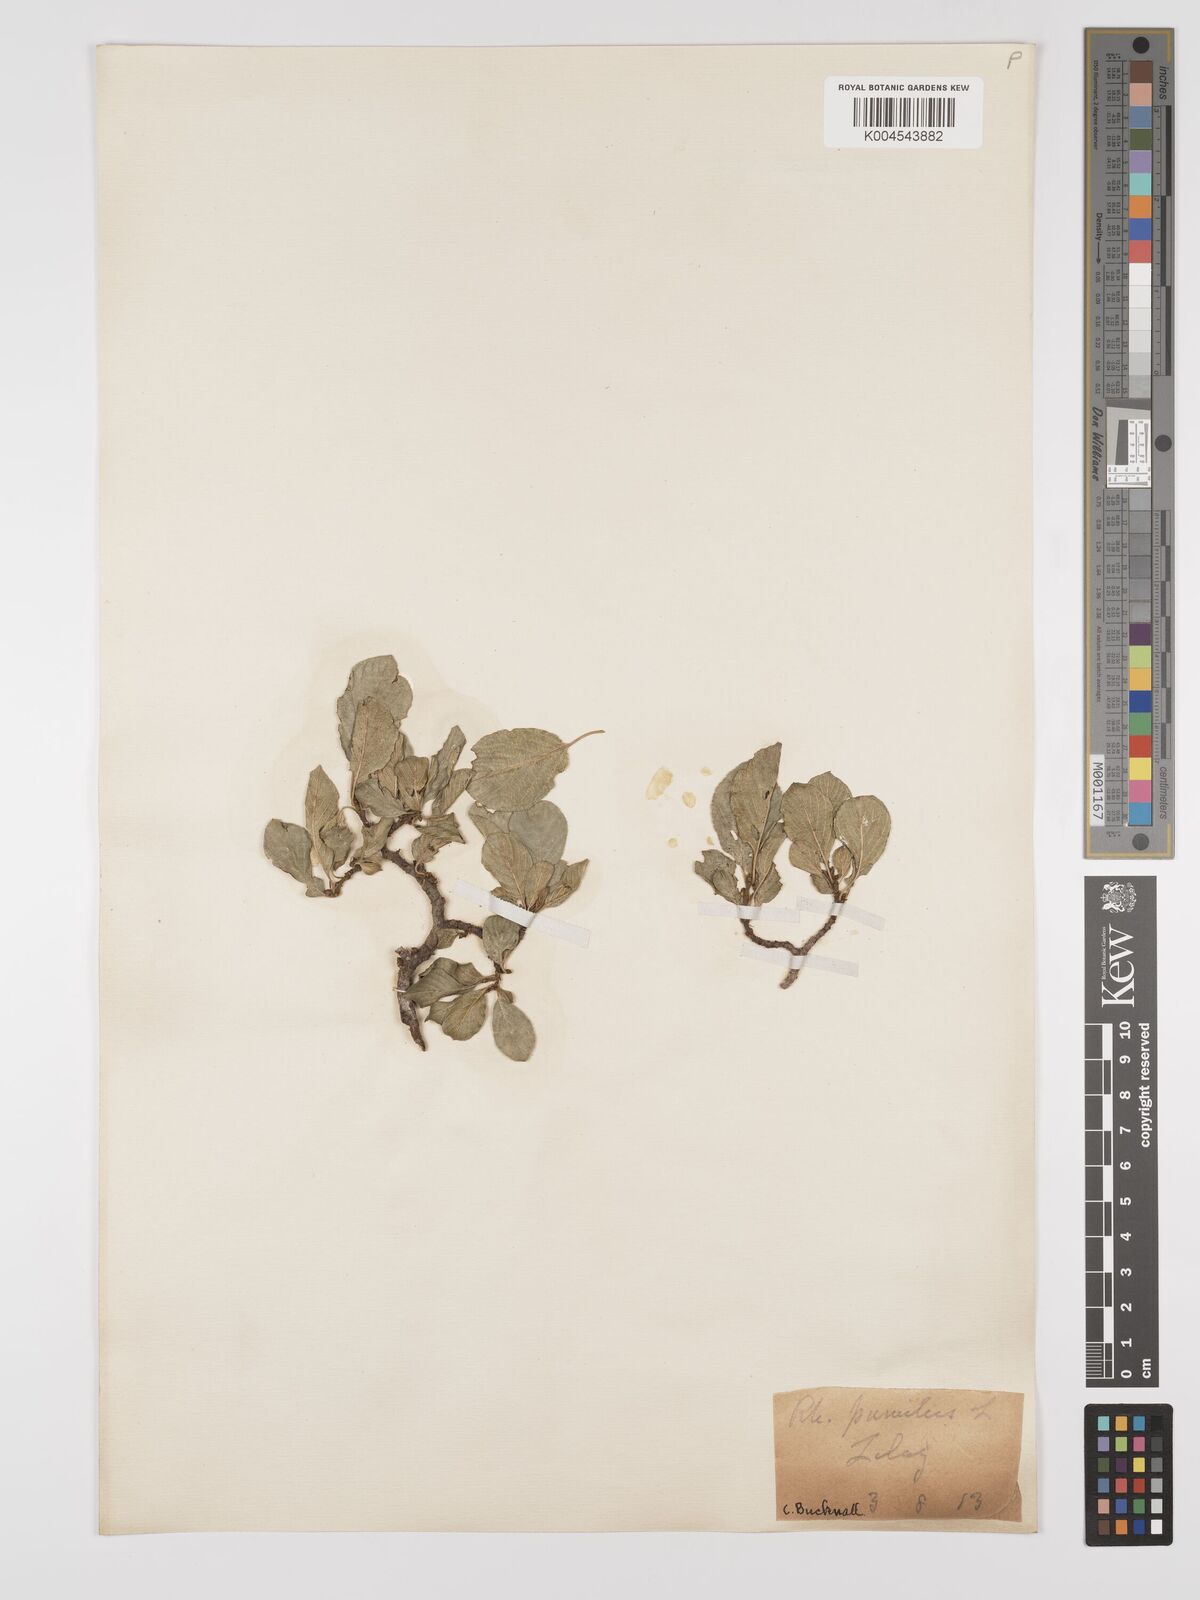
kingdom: Plantae
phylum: Tracheophyta
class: Magnoliopsida
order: Rosales
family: Rhamnaceae
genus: Rhamnus
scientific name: Rhamnus
